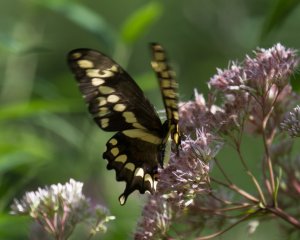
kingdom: Animalia
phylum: Arthropoda
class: Insecta
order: Lepidoptera
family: Papilionidae
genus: Papilio
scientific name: Papilio cresphontes
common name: Eastern Giant Swallowtail
